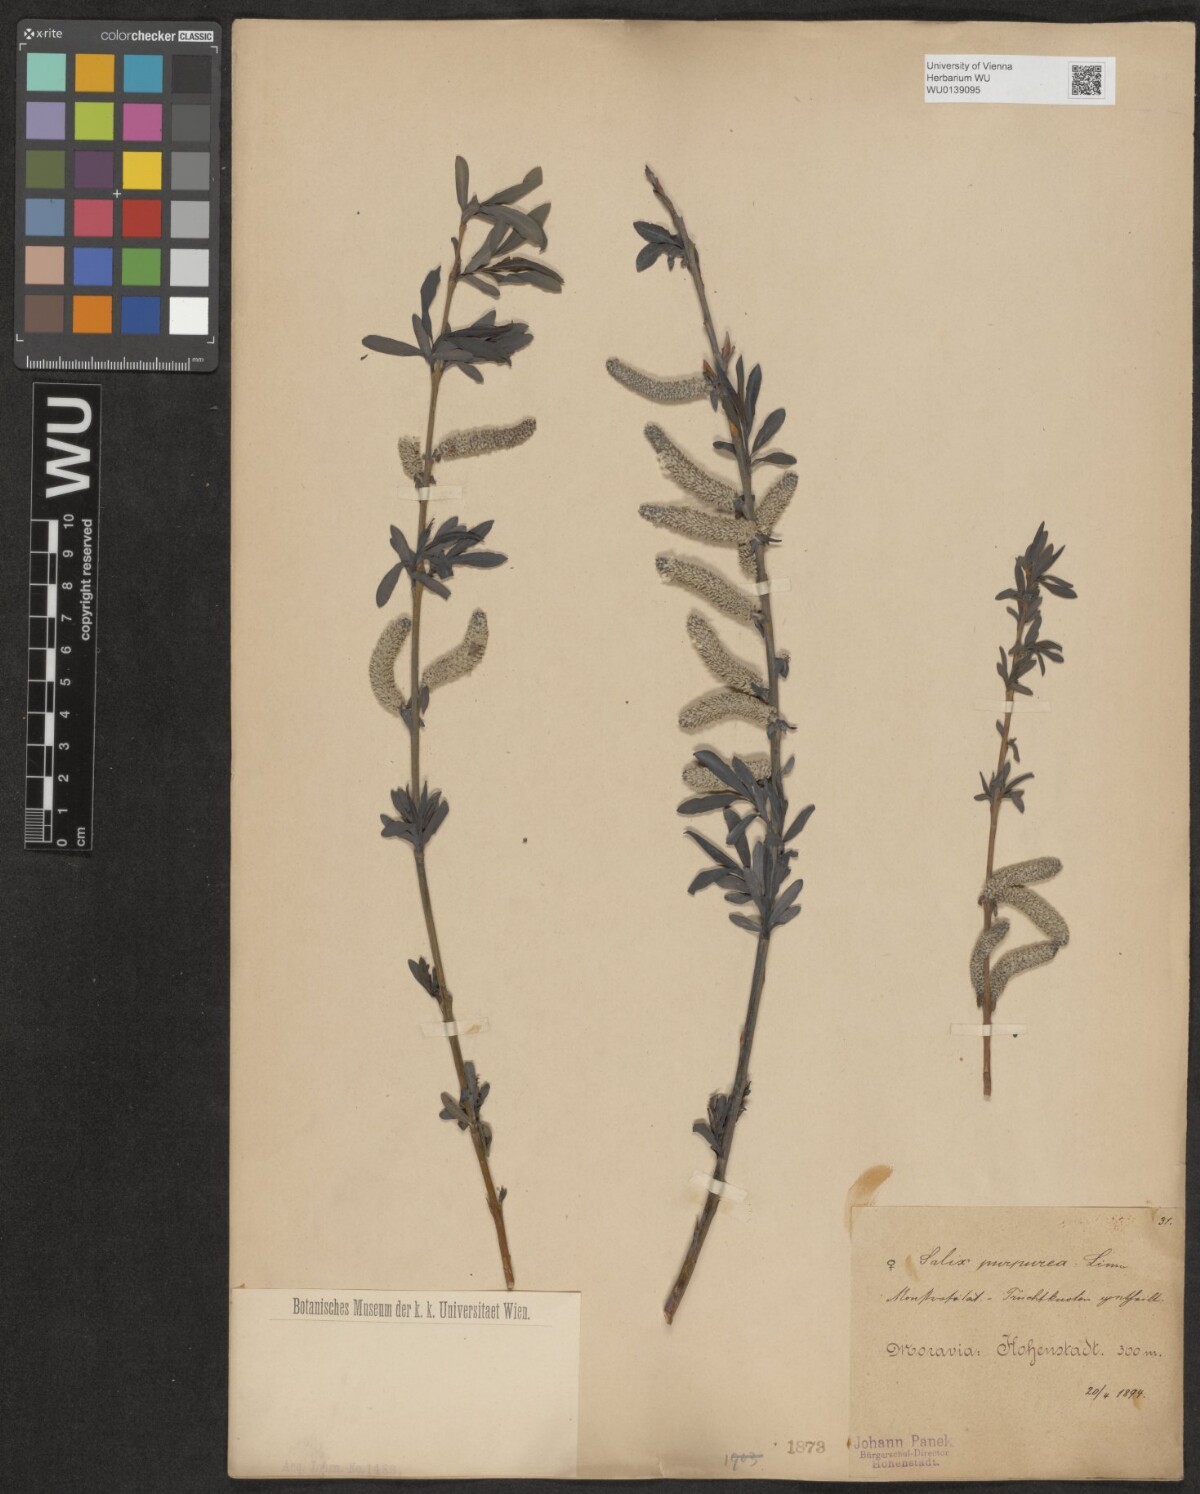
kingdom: Plantae
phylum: Tracheophyta
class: Magnoliopsida
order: Malpighiales
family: Salicaceae
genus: Salix
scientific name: Salix purpurea
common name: Purple willow
